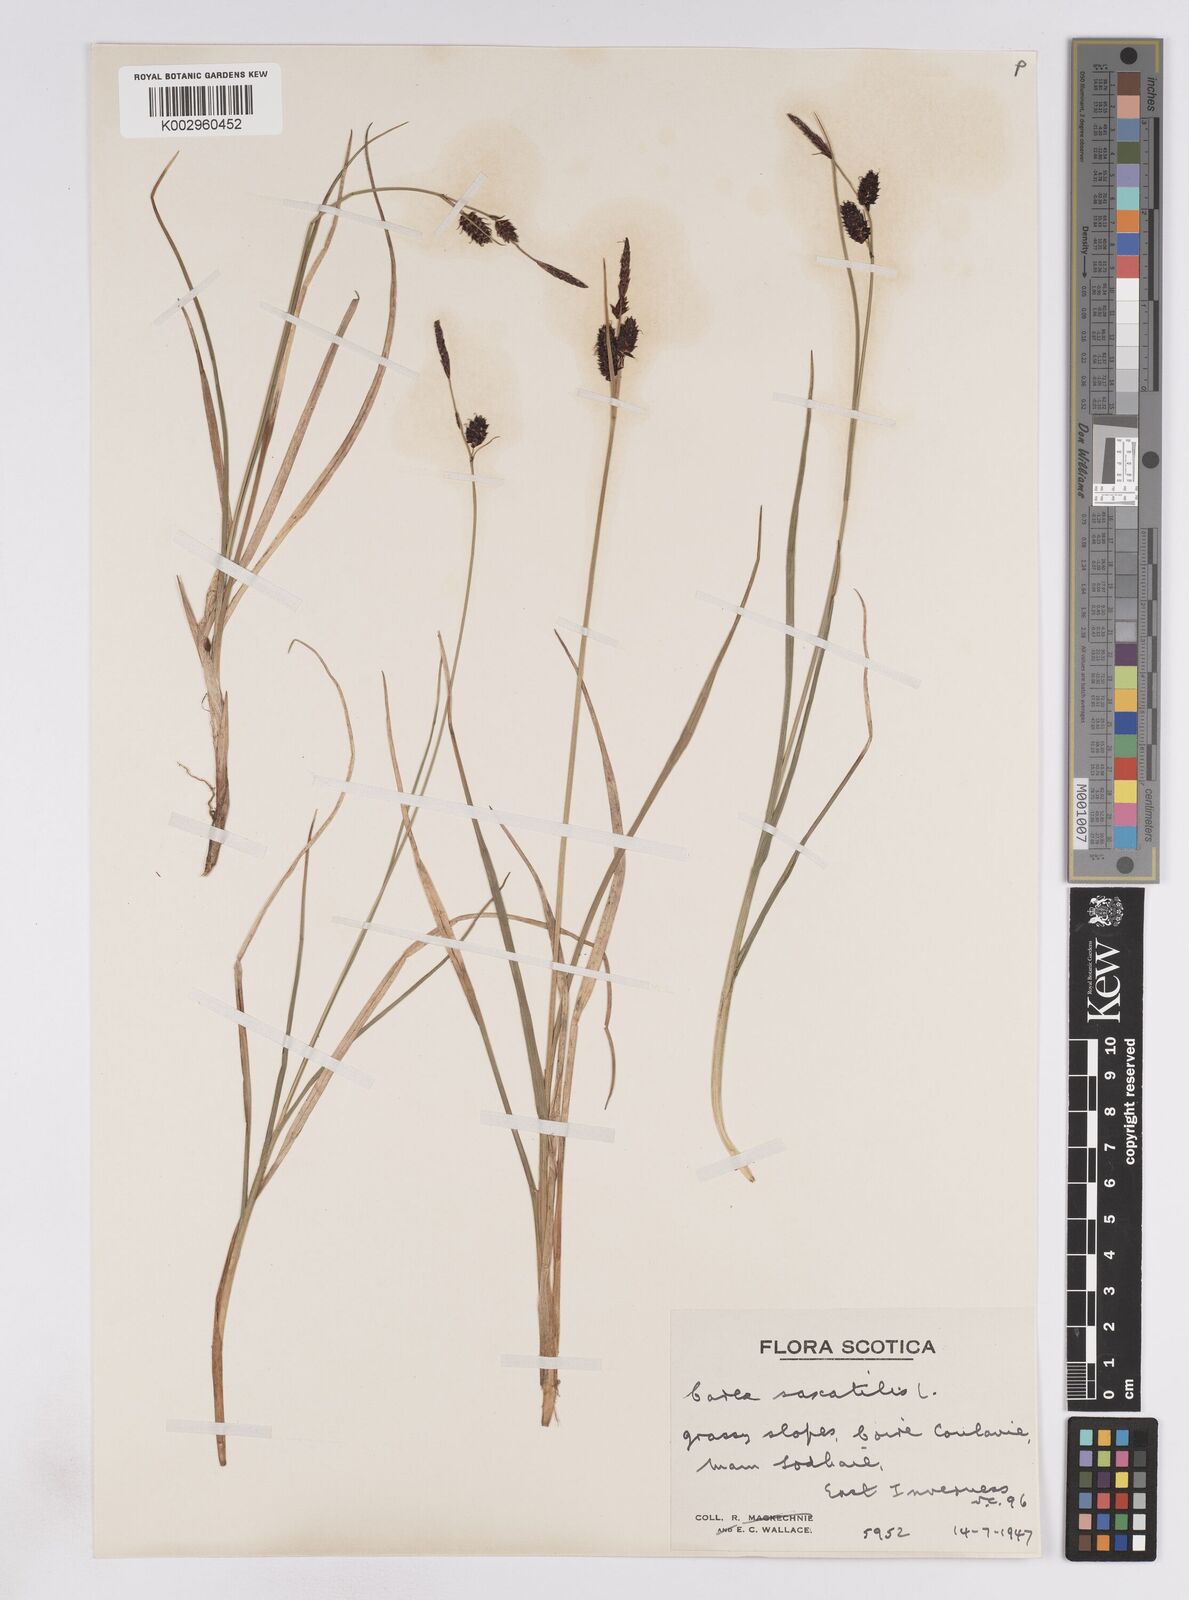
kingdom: Plantae
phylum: Tracheophyta
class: Liliopsida
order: Poales
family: Cyperaceae
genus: Carex
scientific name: Carex saxatilis
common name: Russet sedge
